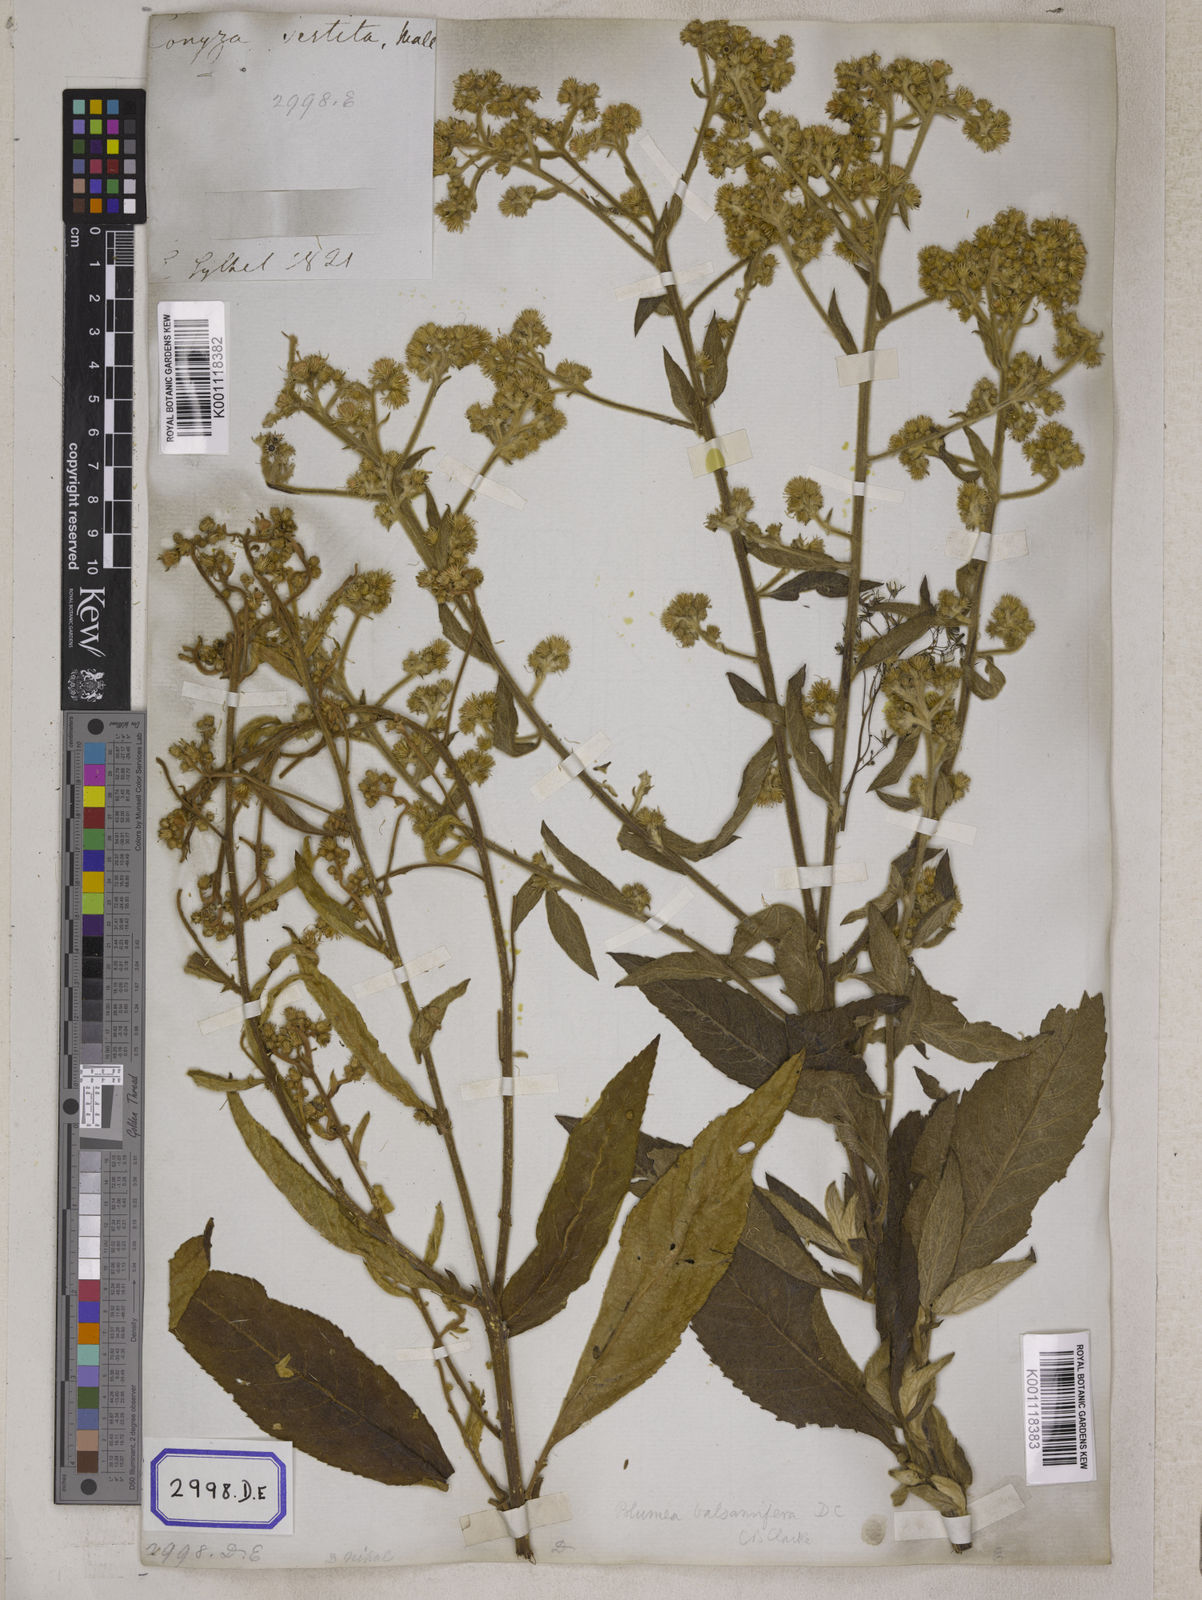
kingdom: Plantae
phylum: Tracheophyta
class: Magnoliopsida
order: Asterales
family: Asteraceae
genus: Blumea
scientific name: Blumea balsamifera
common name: Ngai camphor
